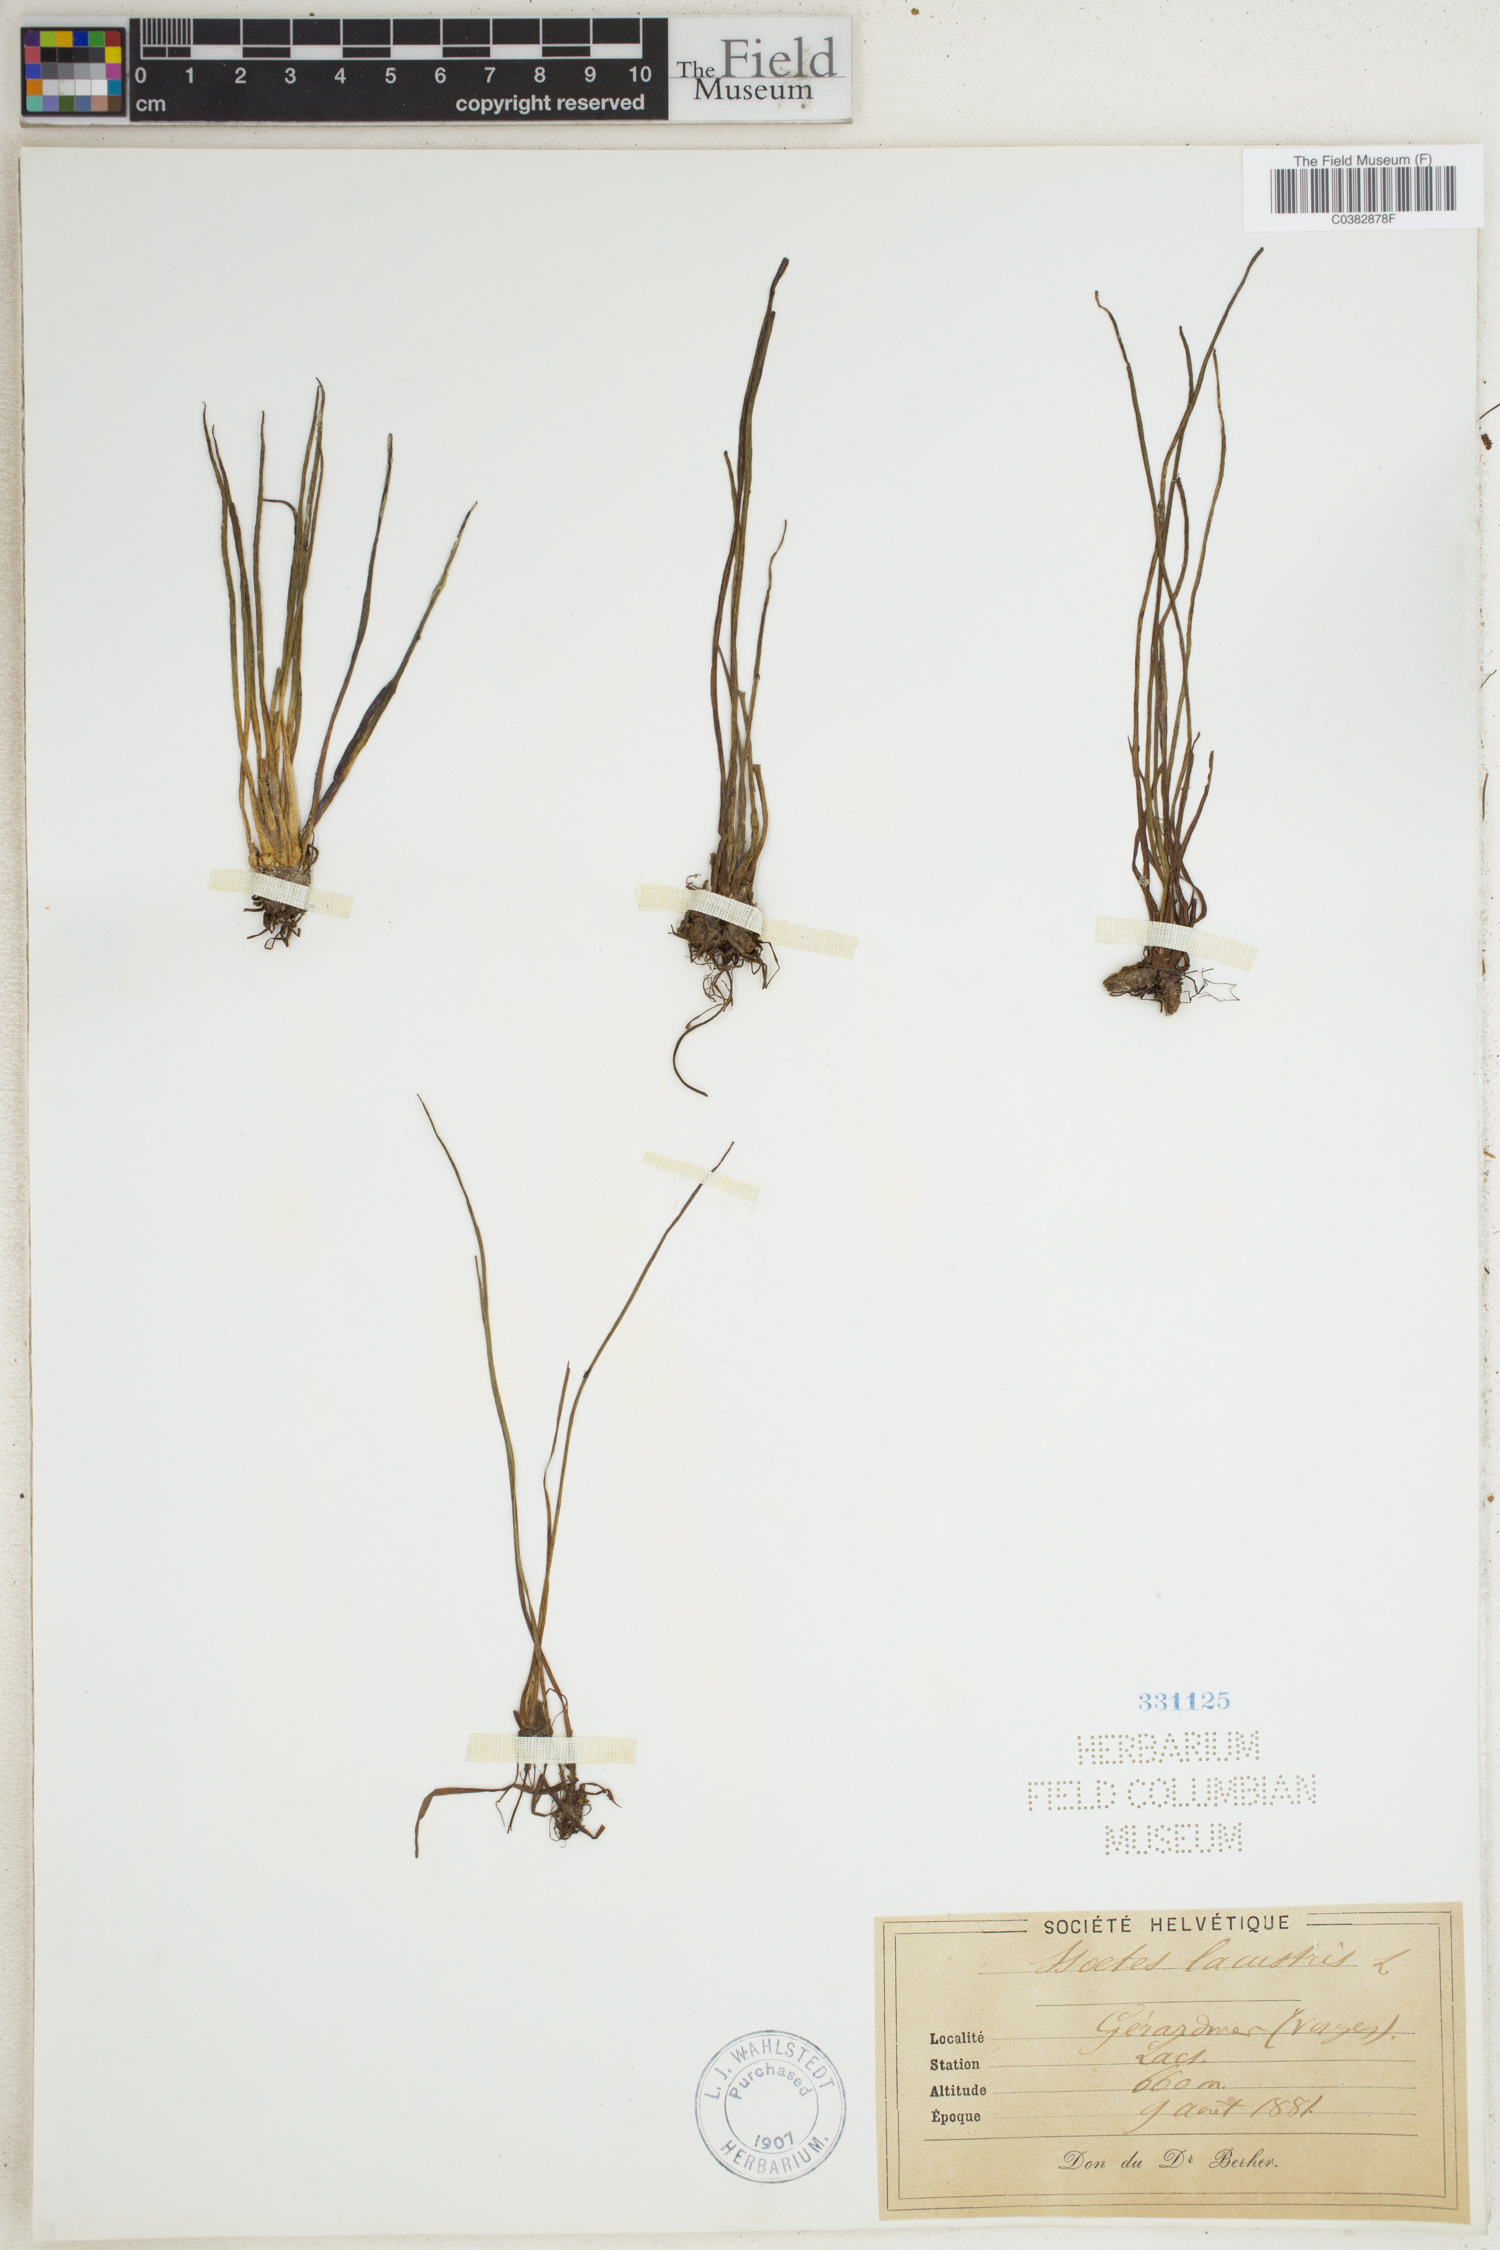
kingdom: Plantae
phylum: Tracheophyta
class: Lycopodiopsida
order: Isoetales
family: Isoetaceae
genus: Isoetes
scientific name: Isoetes lacustris
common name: Common quillwort
